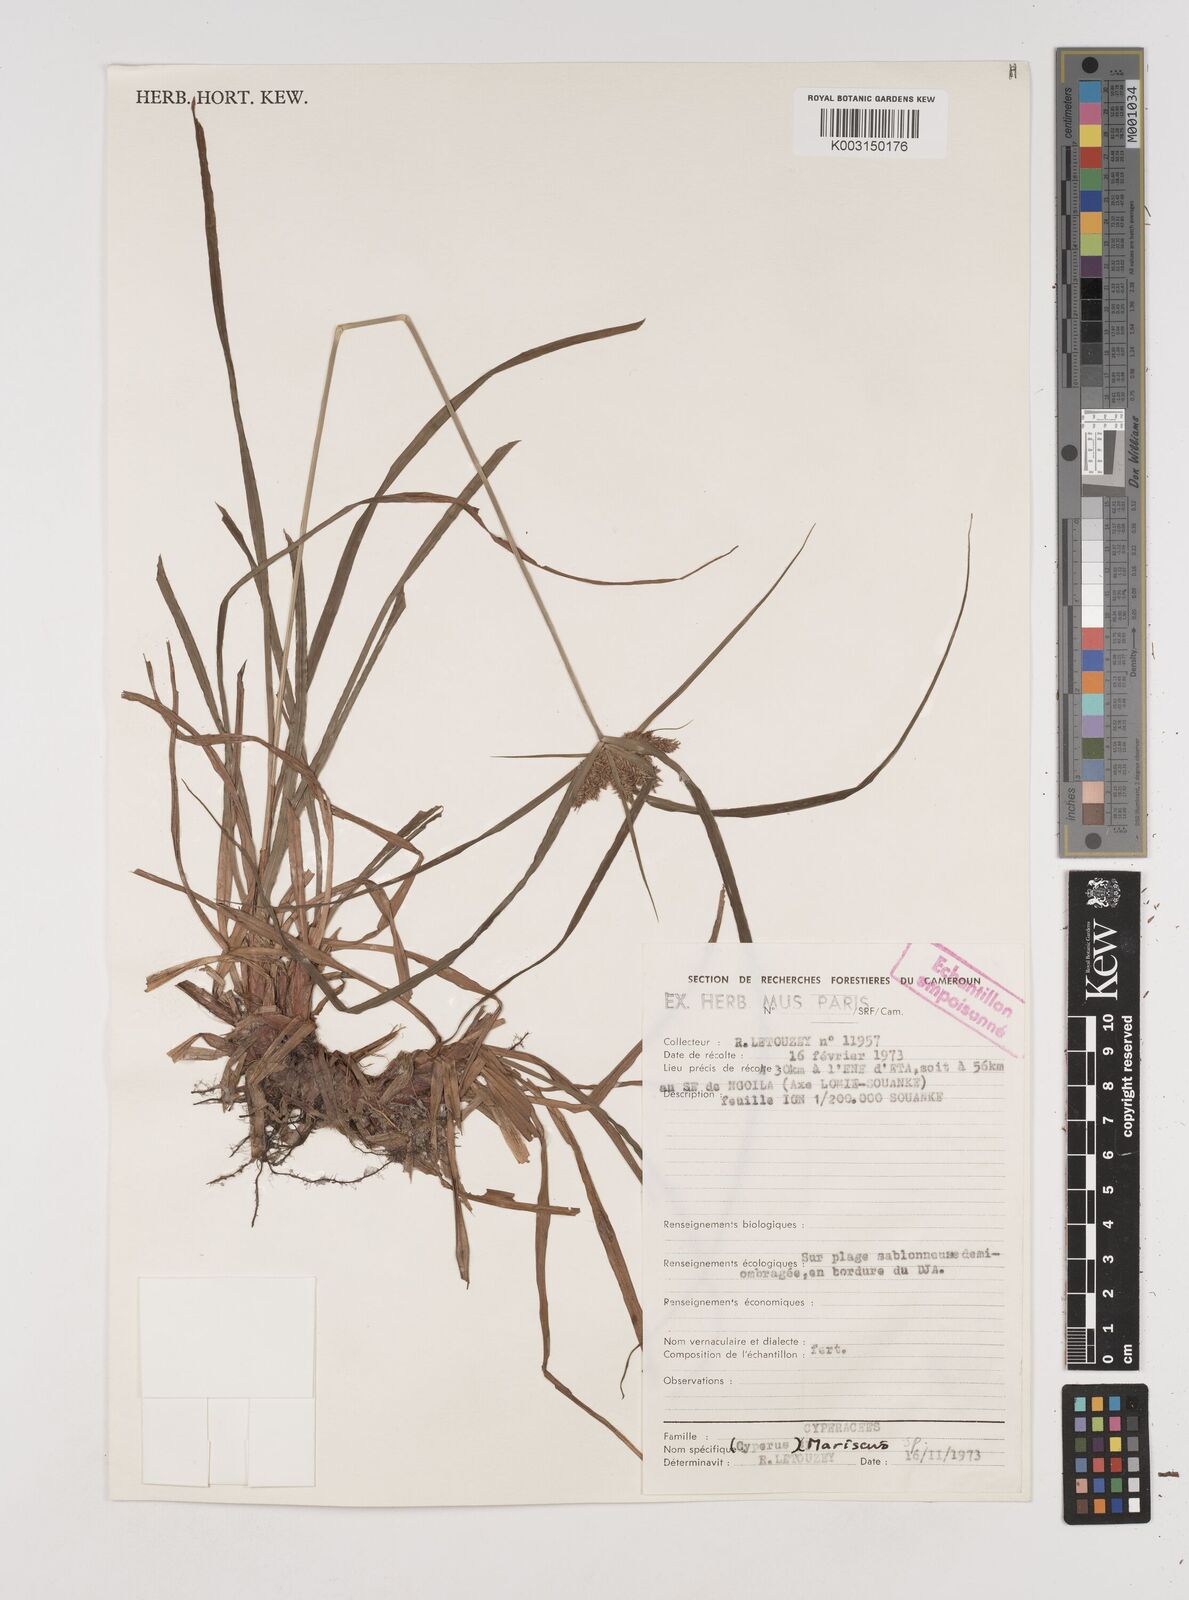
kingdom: Plantae
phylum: Tracheophyta
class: Liliopsida
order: Poales
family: Cyperaceae
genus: Cyperus
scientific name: Cyperus
